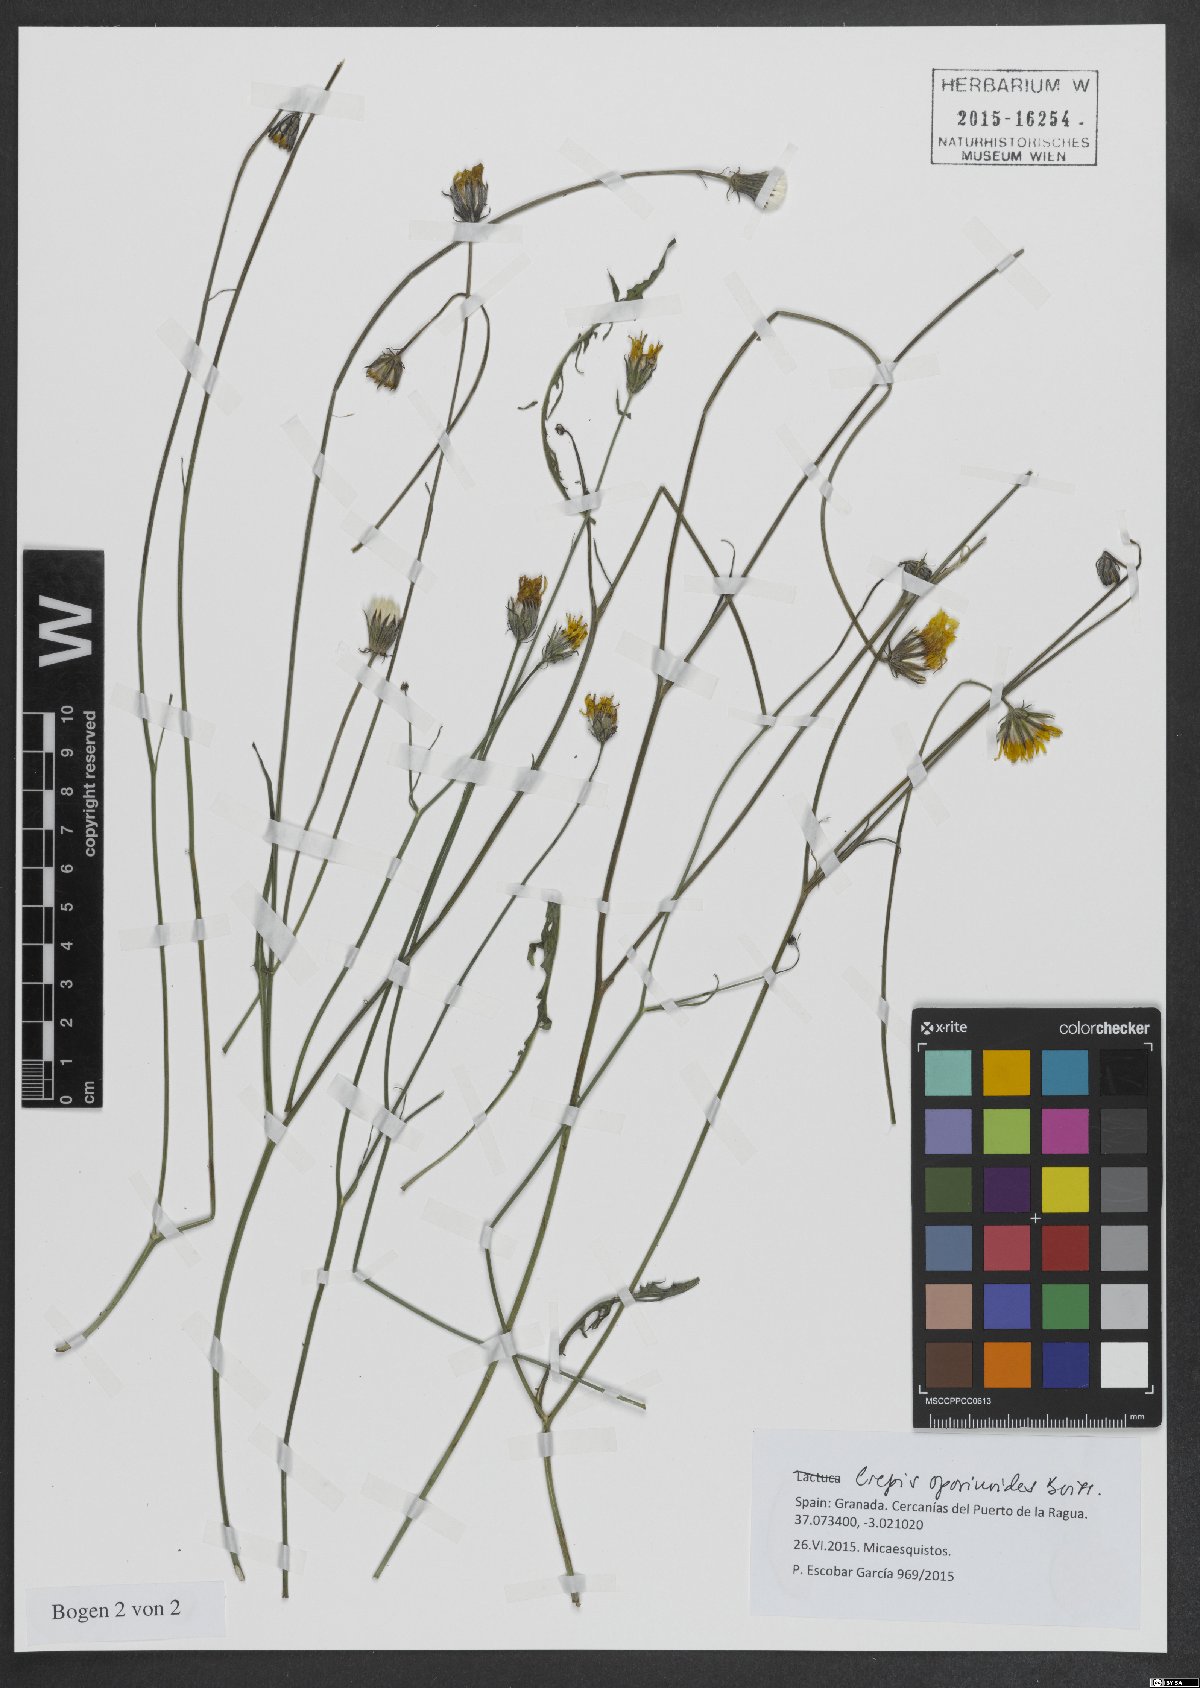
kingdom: Plantae
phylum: Tracheophyta
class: Magnoliopsida
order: Asterales
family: Asteraceae
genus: Crepis
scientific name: Crepis oporinoides
